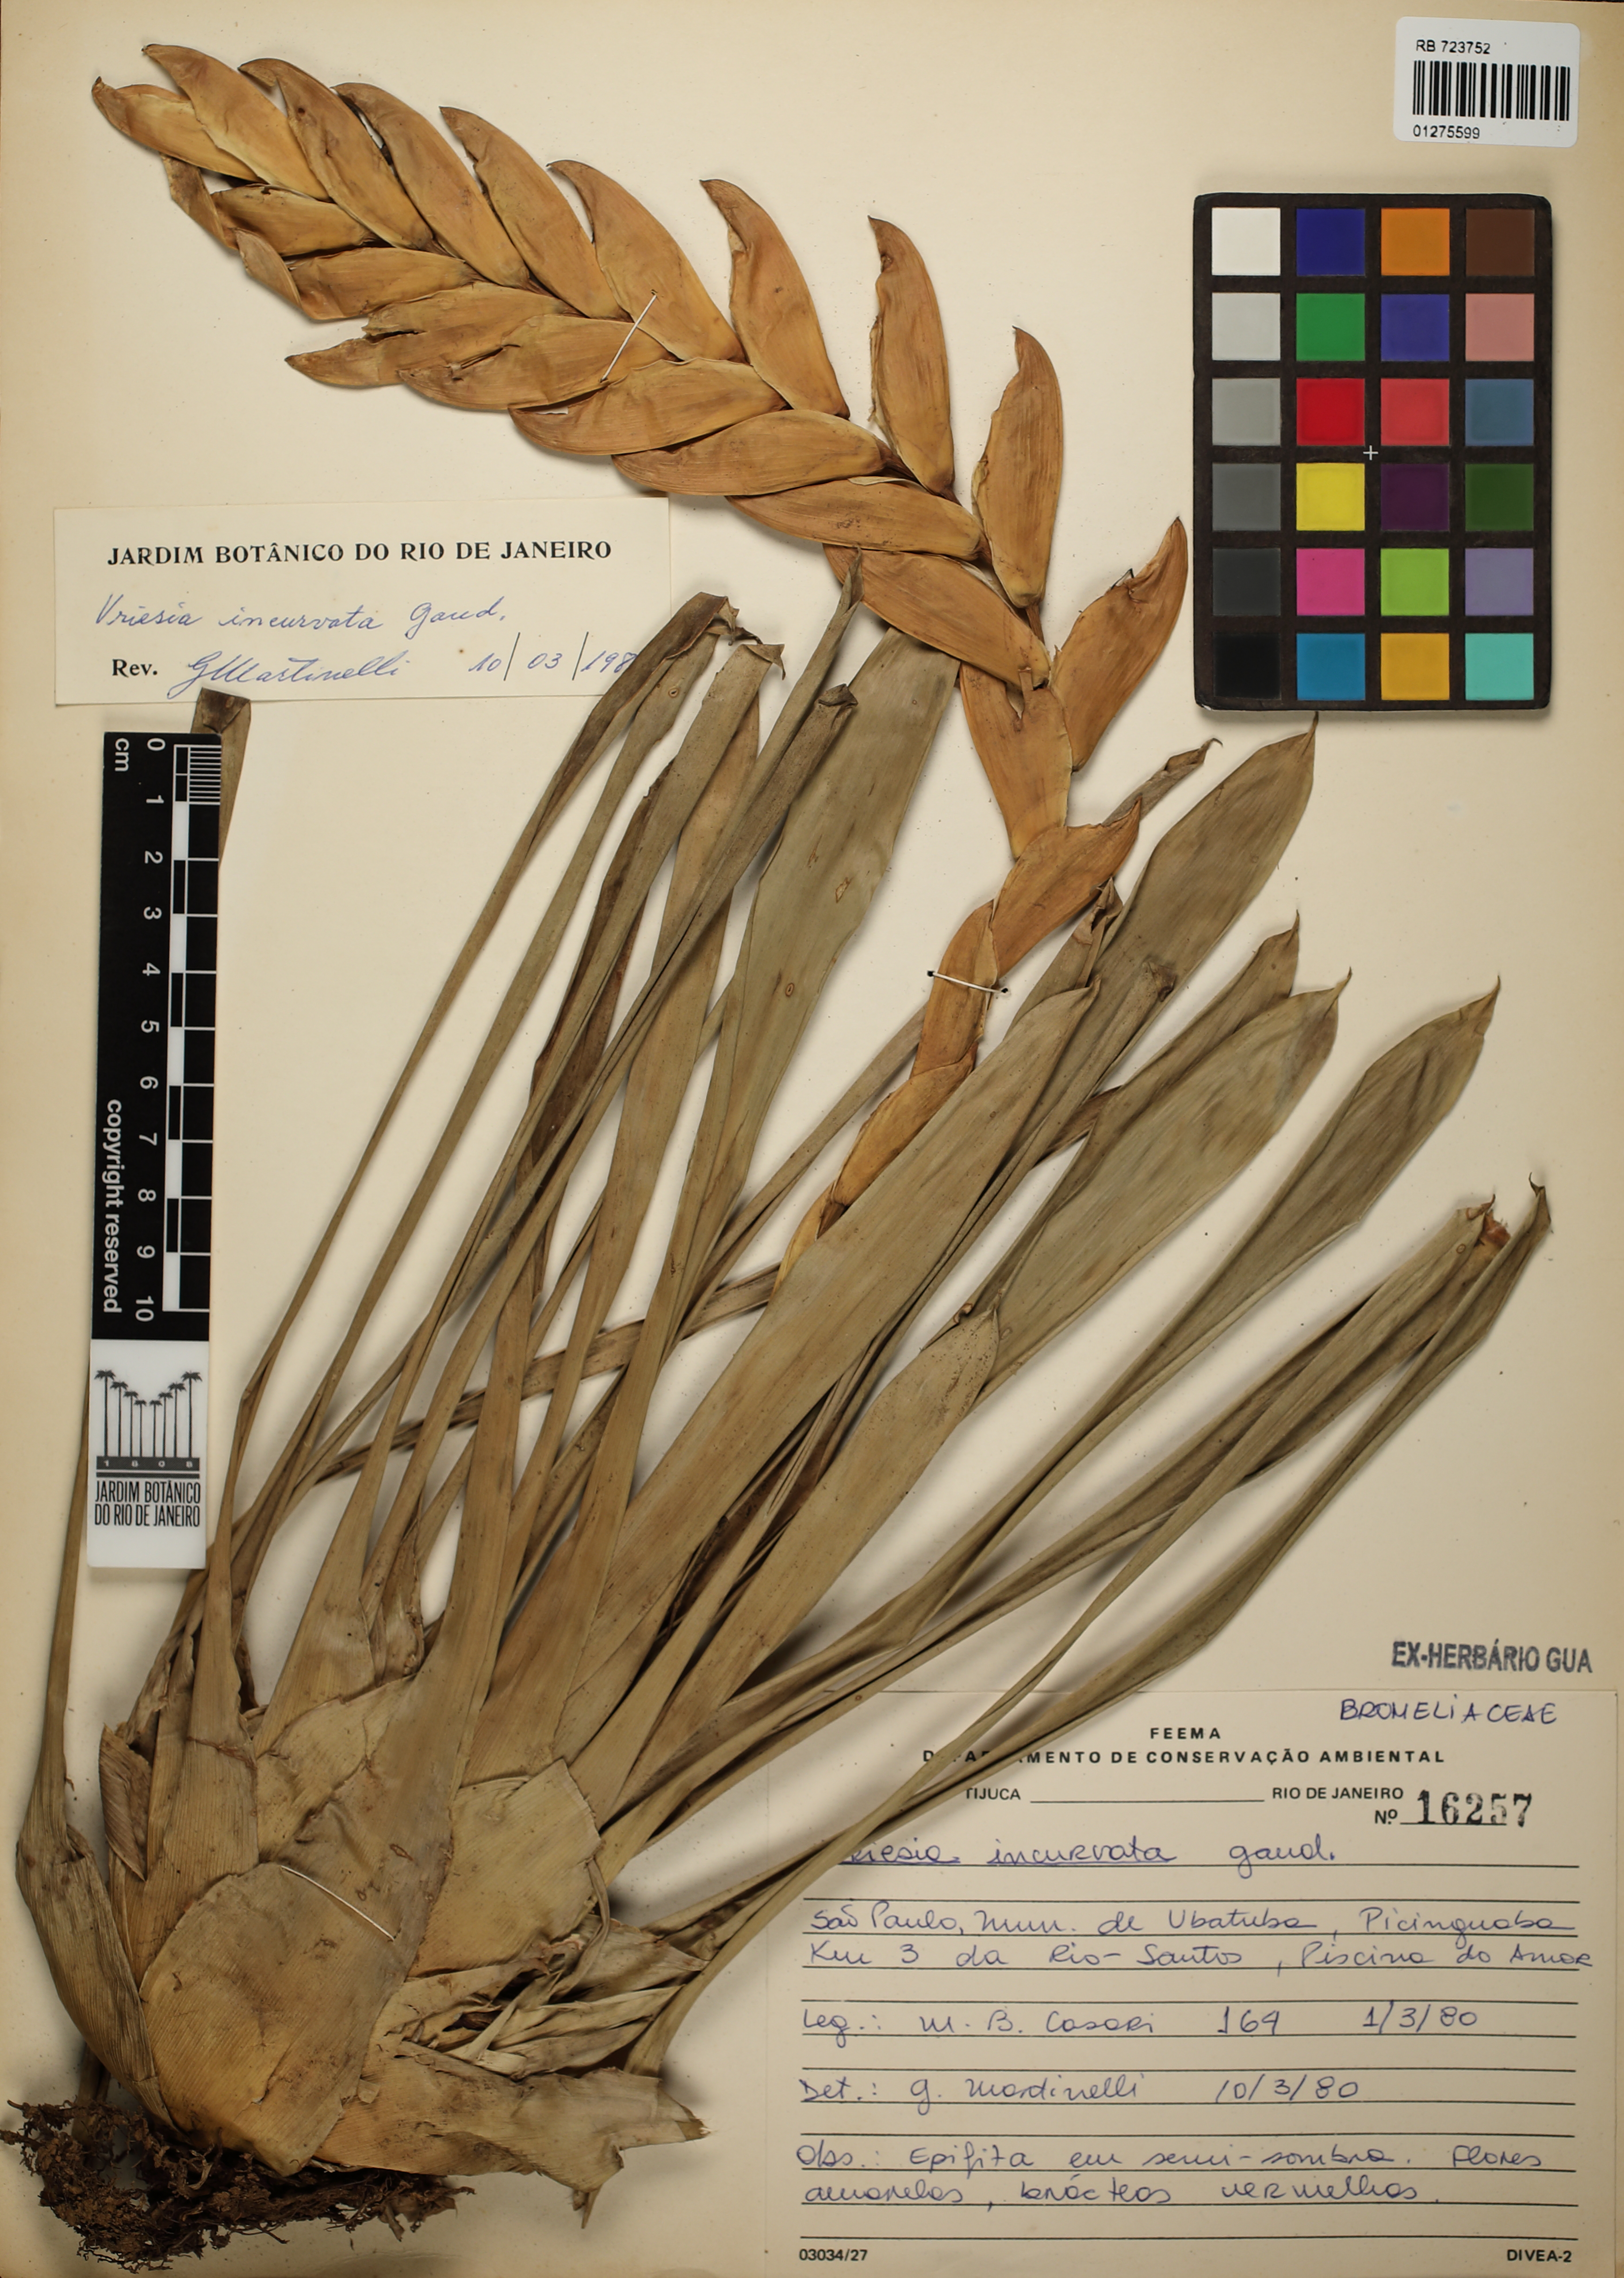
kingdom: Plantae
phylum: Tracheophyta
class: Liliopsida
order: Poales
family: Bromeliaceae
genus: Vriesea
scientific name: Vriesea incurvata
